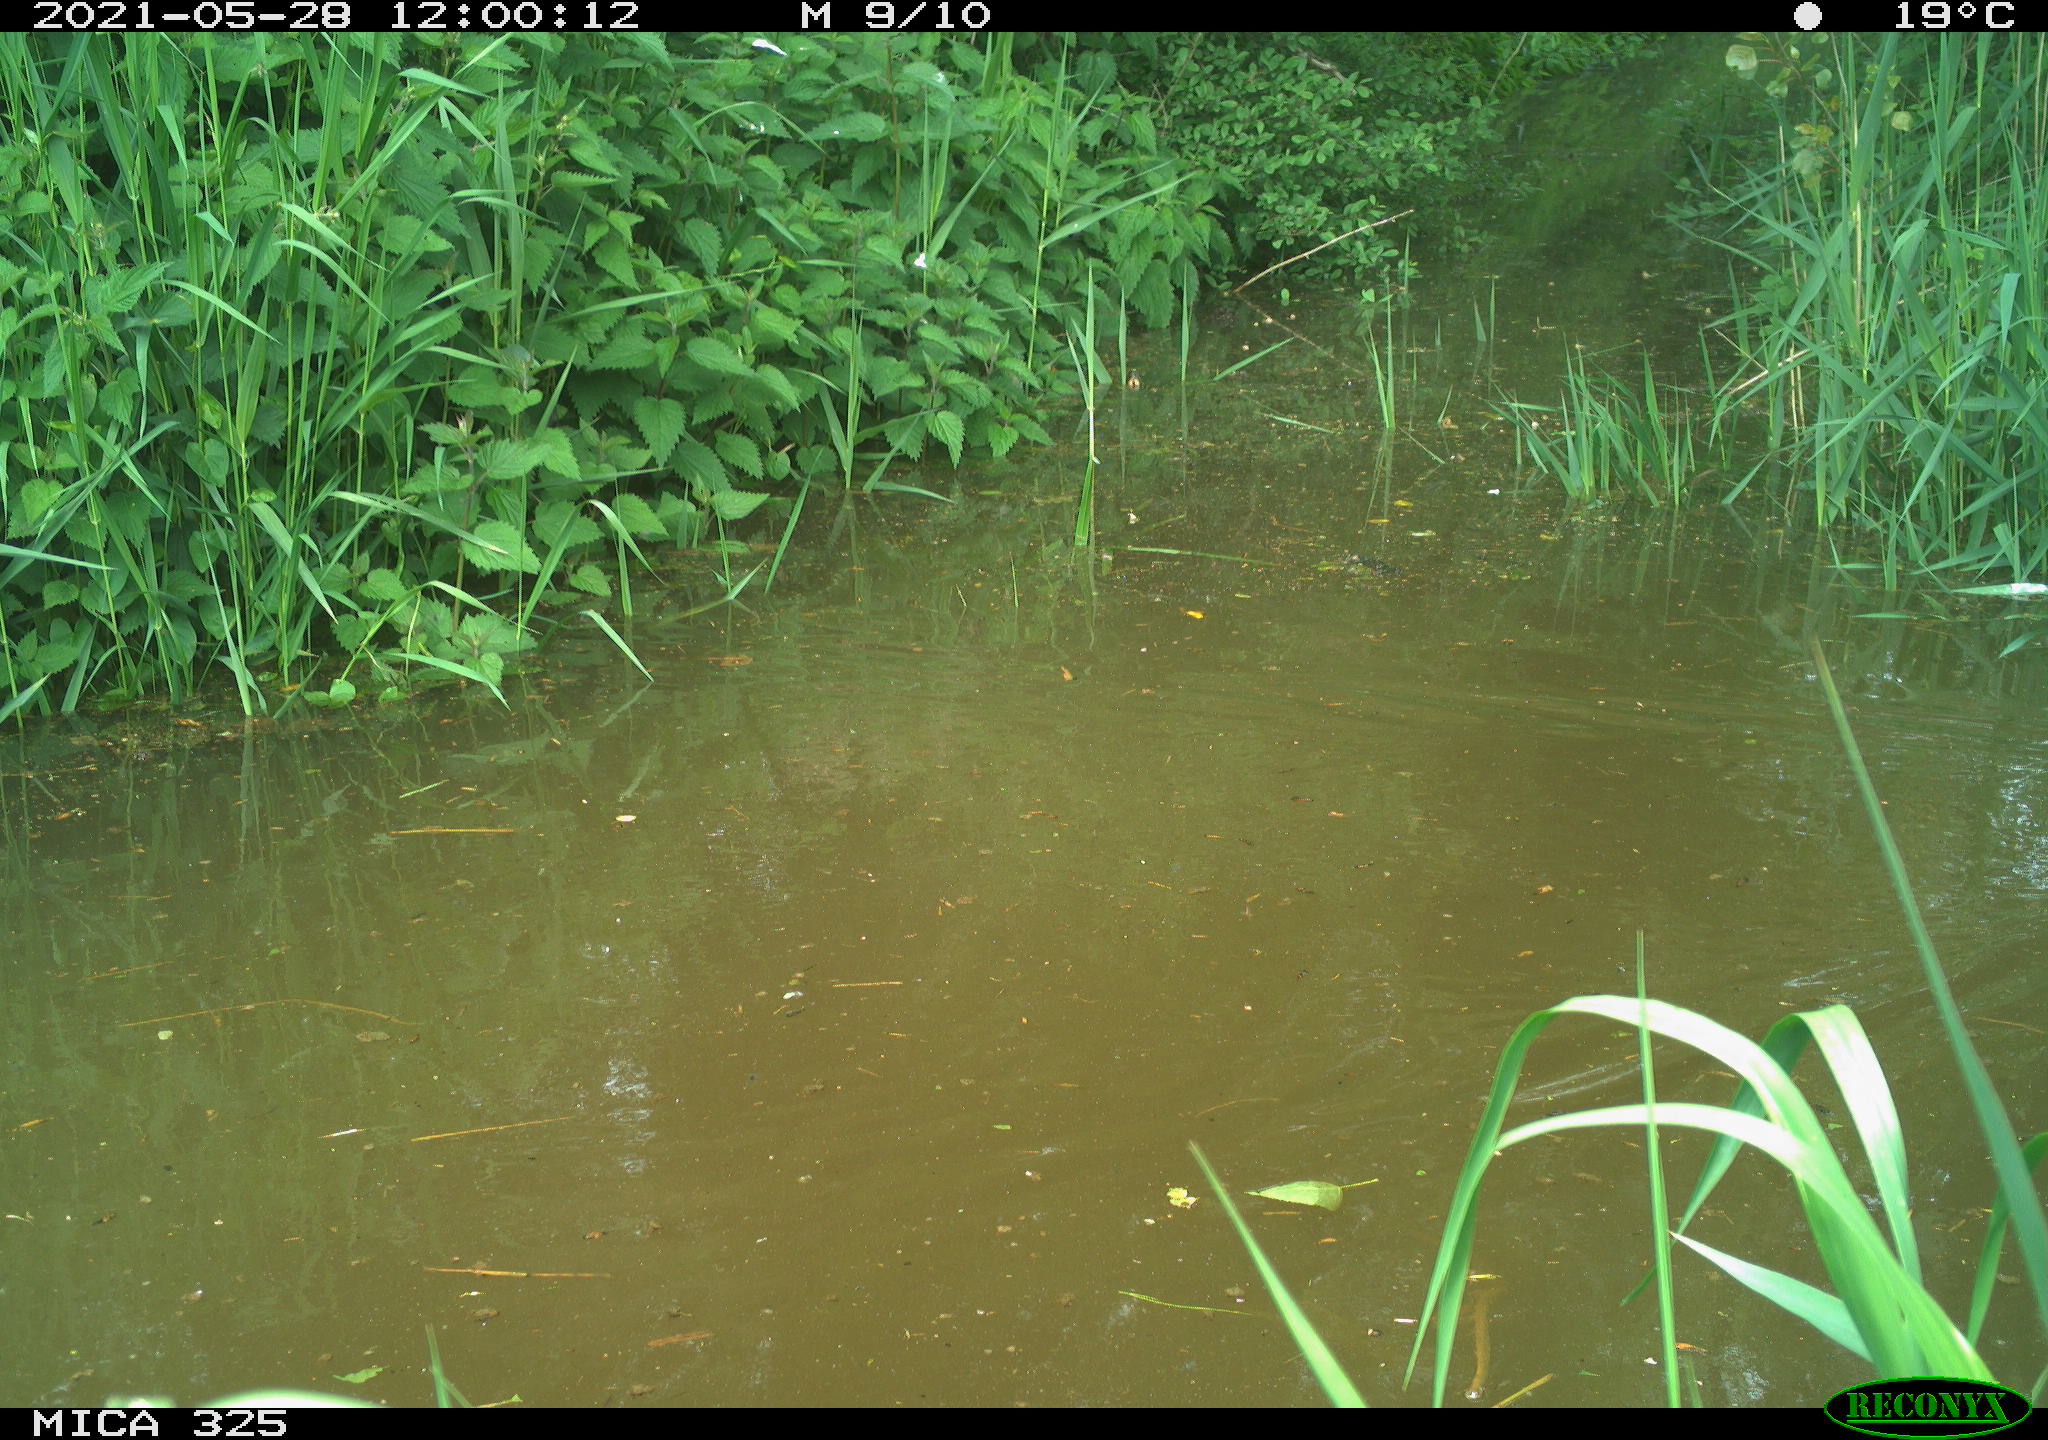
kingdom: Animalia
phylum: Chordata
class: Aves
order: Anseriformes
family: Anatidae
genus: Anas
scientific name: Anas platyrhynchos
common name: Mallard
